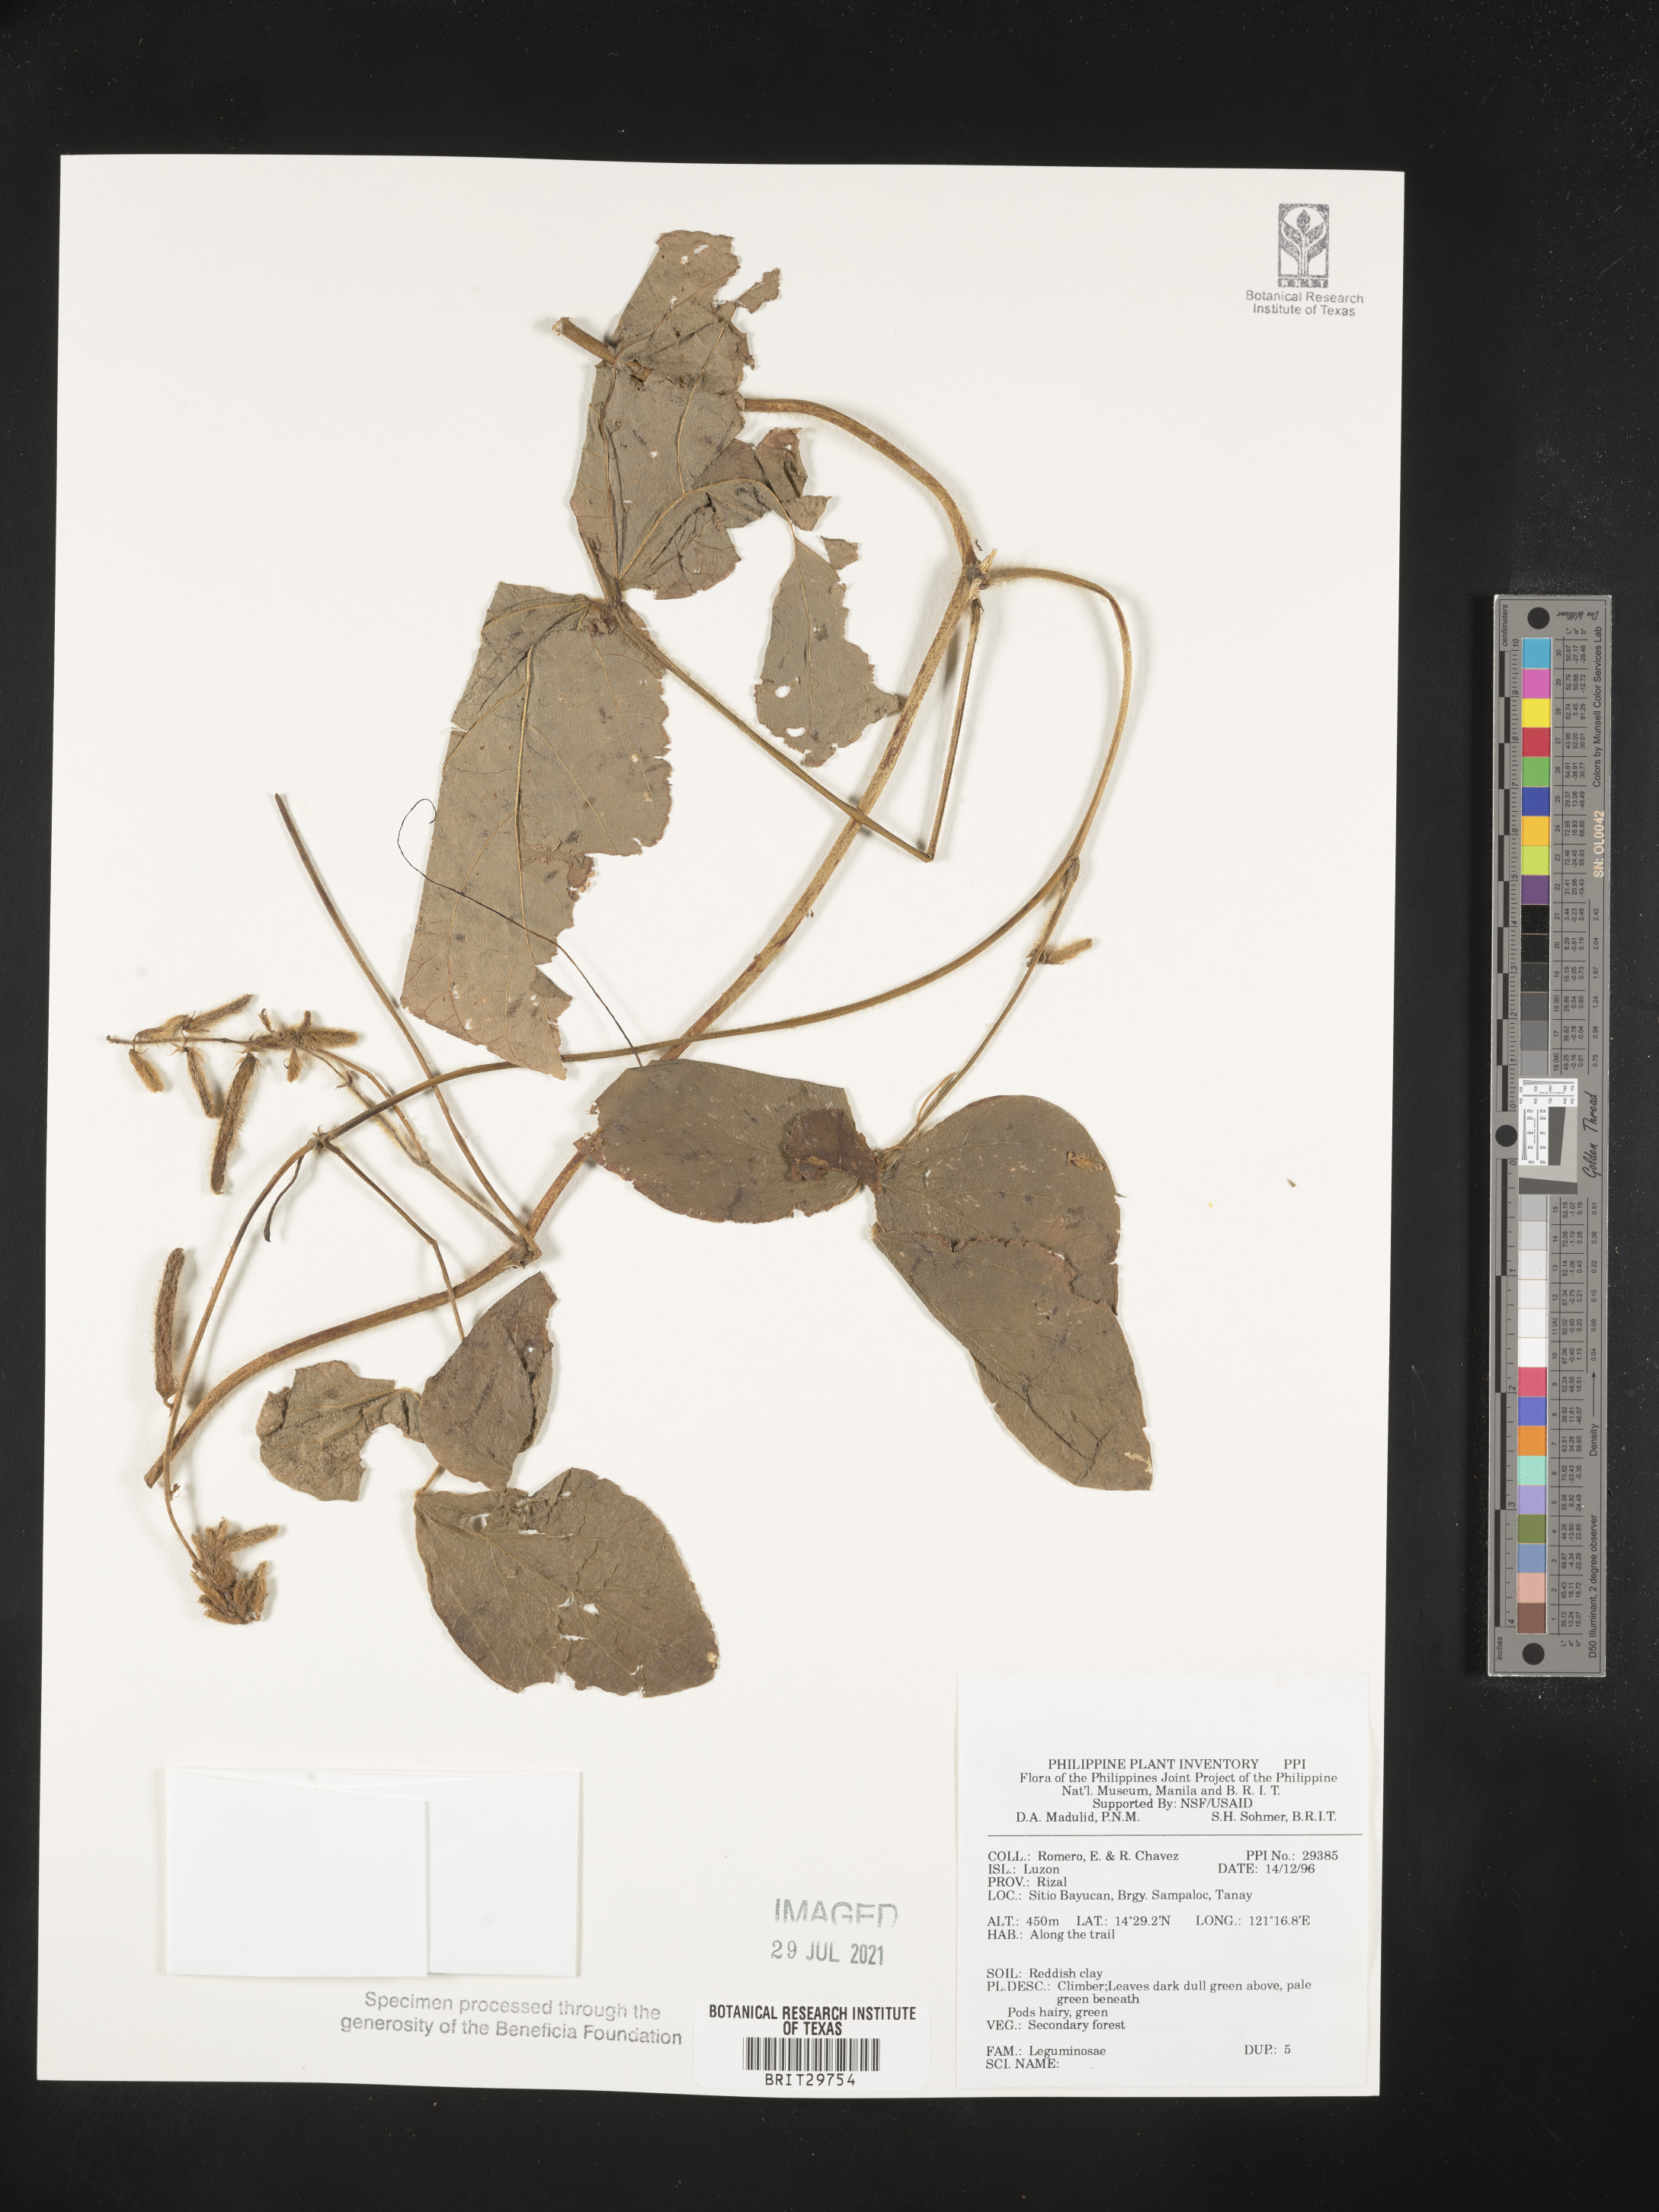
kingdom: Plantae
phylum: Tracheophyta
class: Magnoliopsida
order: Fabales
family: Fabaceae
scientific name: Fabaceae
